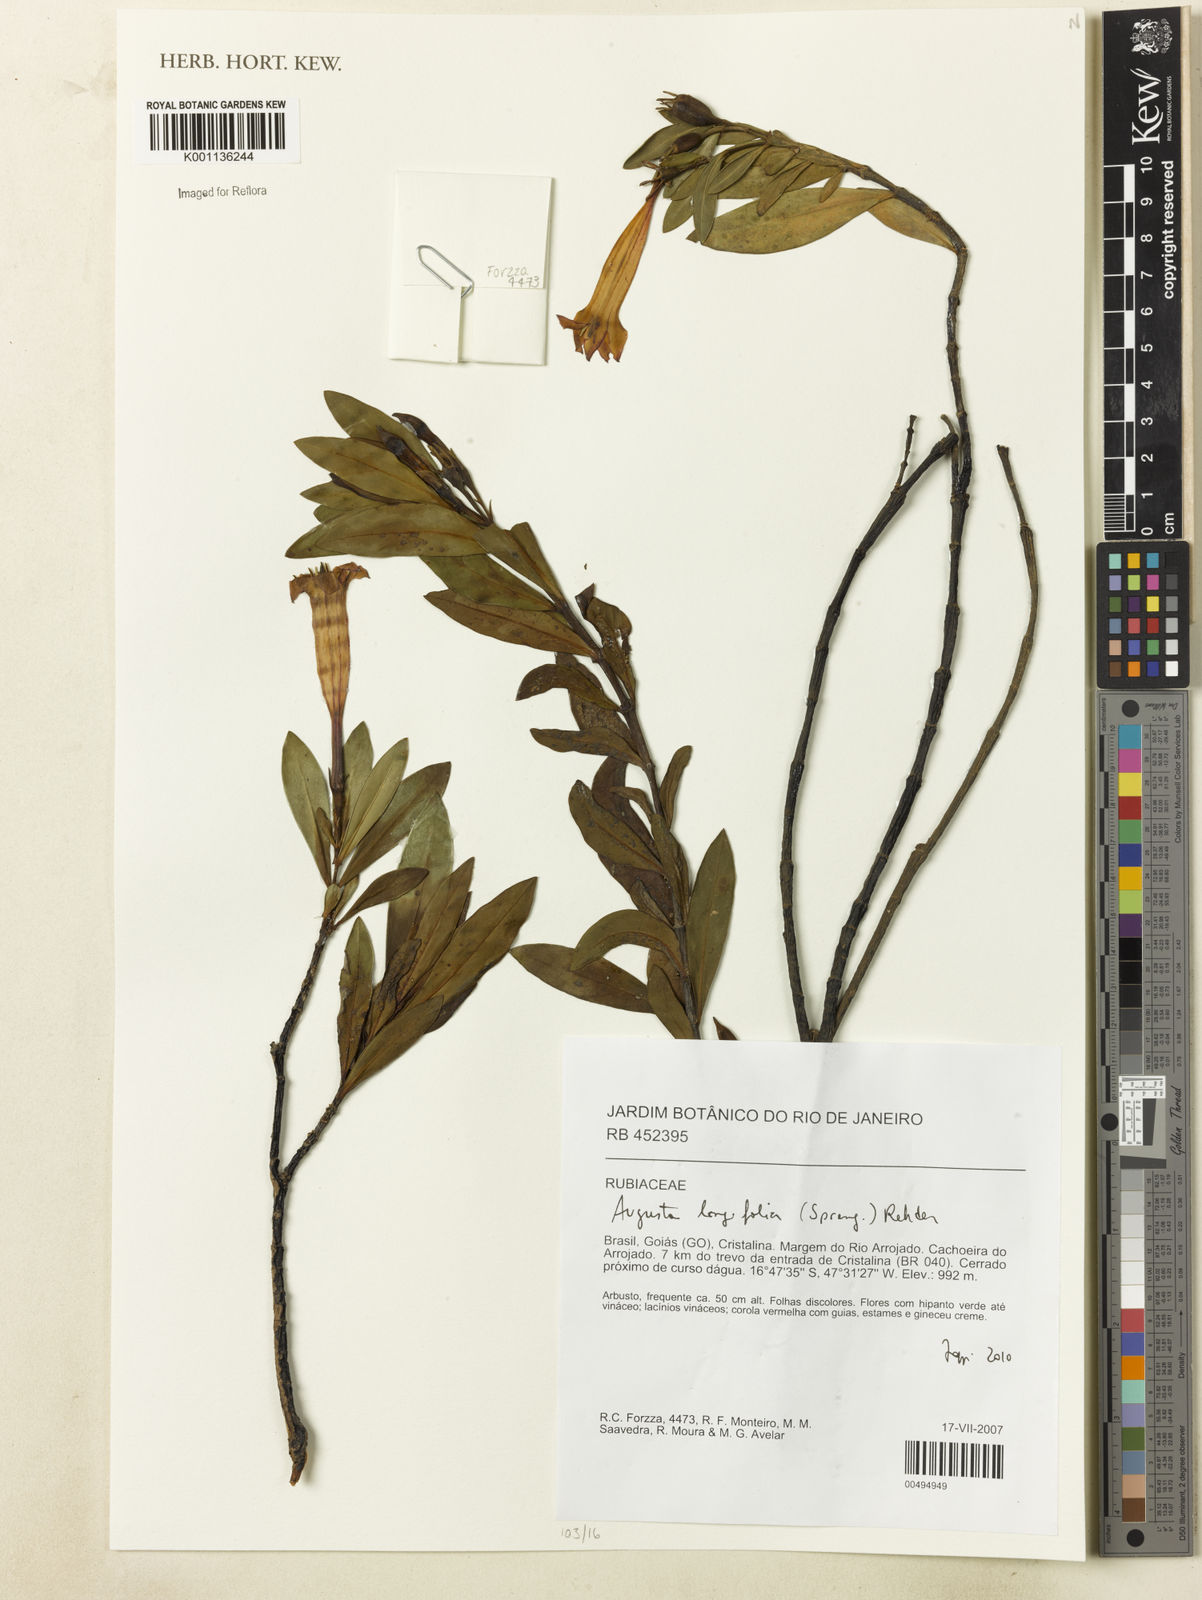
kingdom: Plantae
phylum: Tracheophyta
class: Magnoliopsida
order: Gentianales
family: Rubiaceae
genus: Augusta
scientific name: Augusta longifolia
